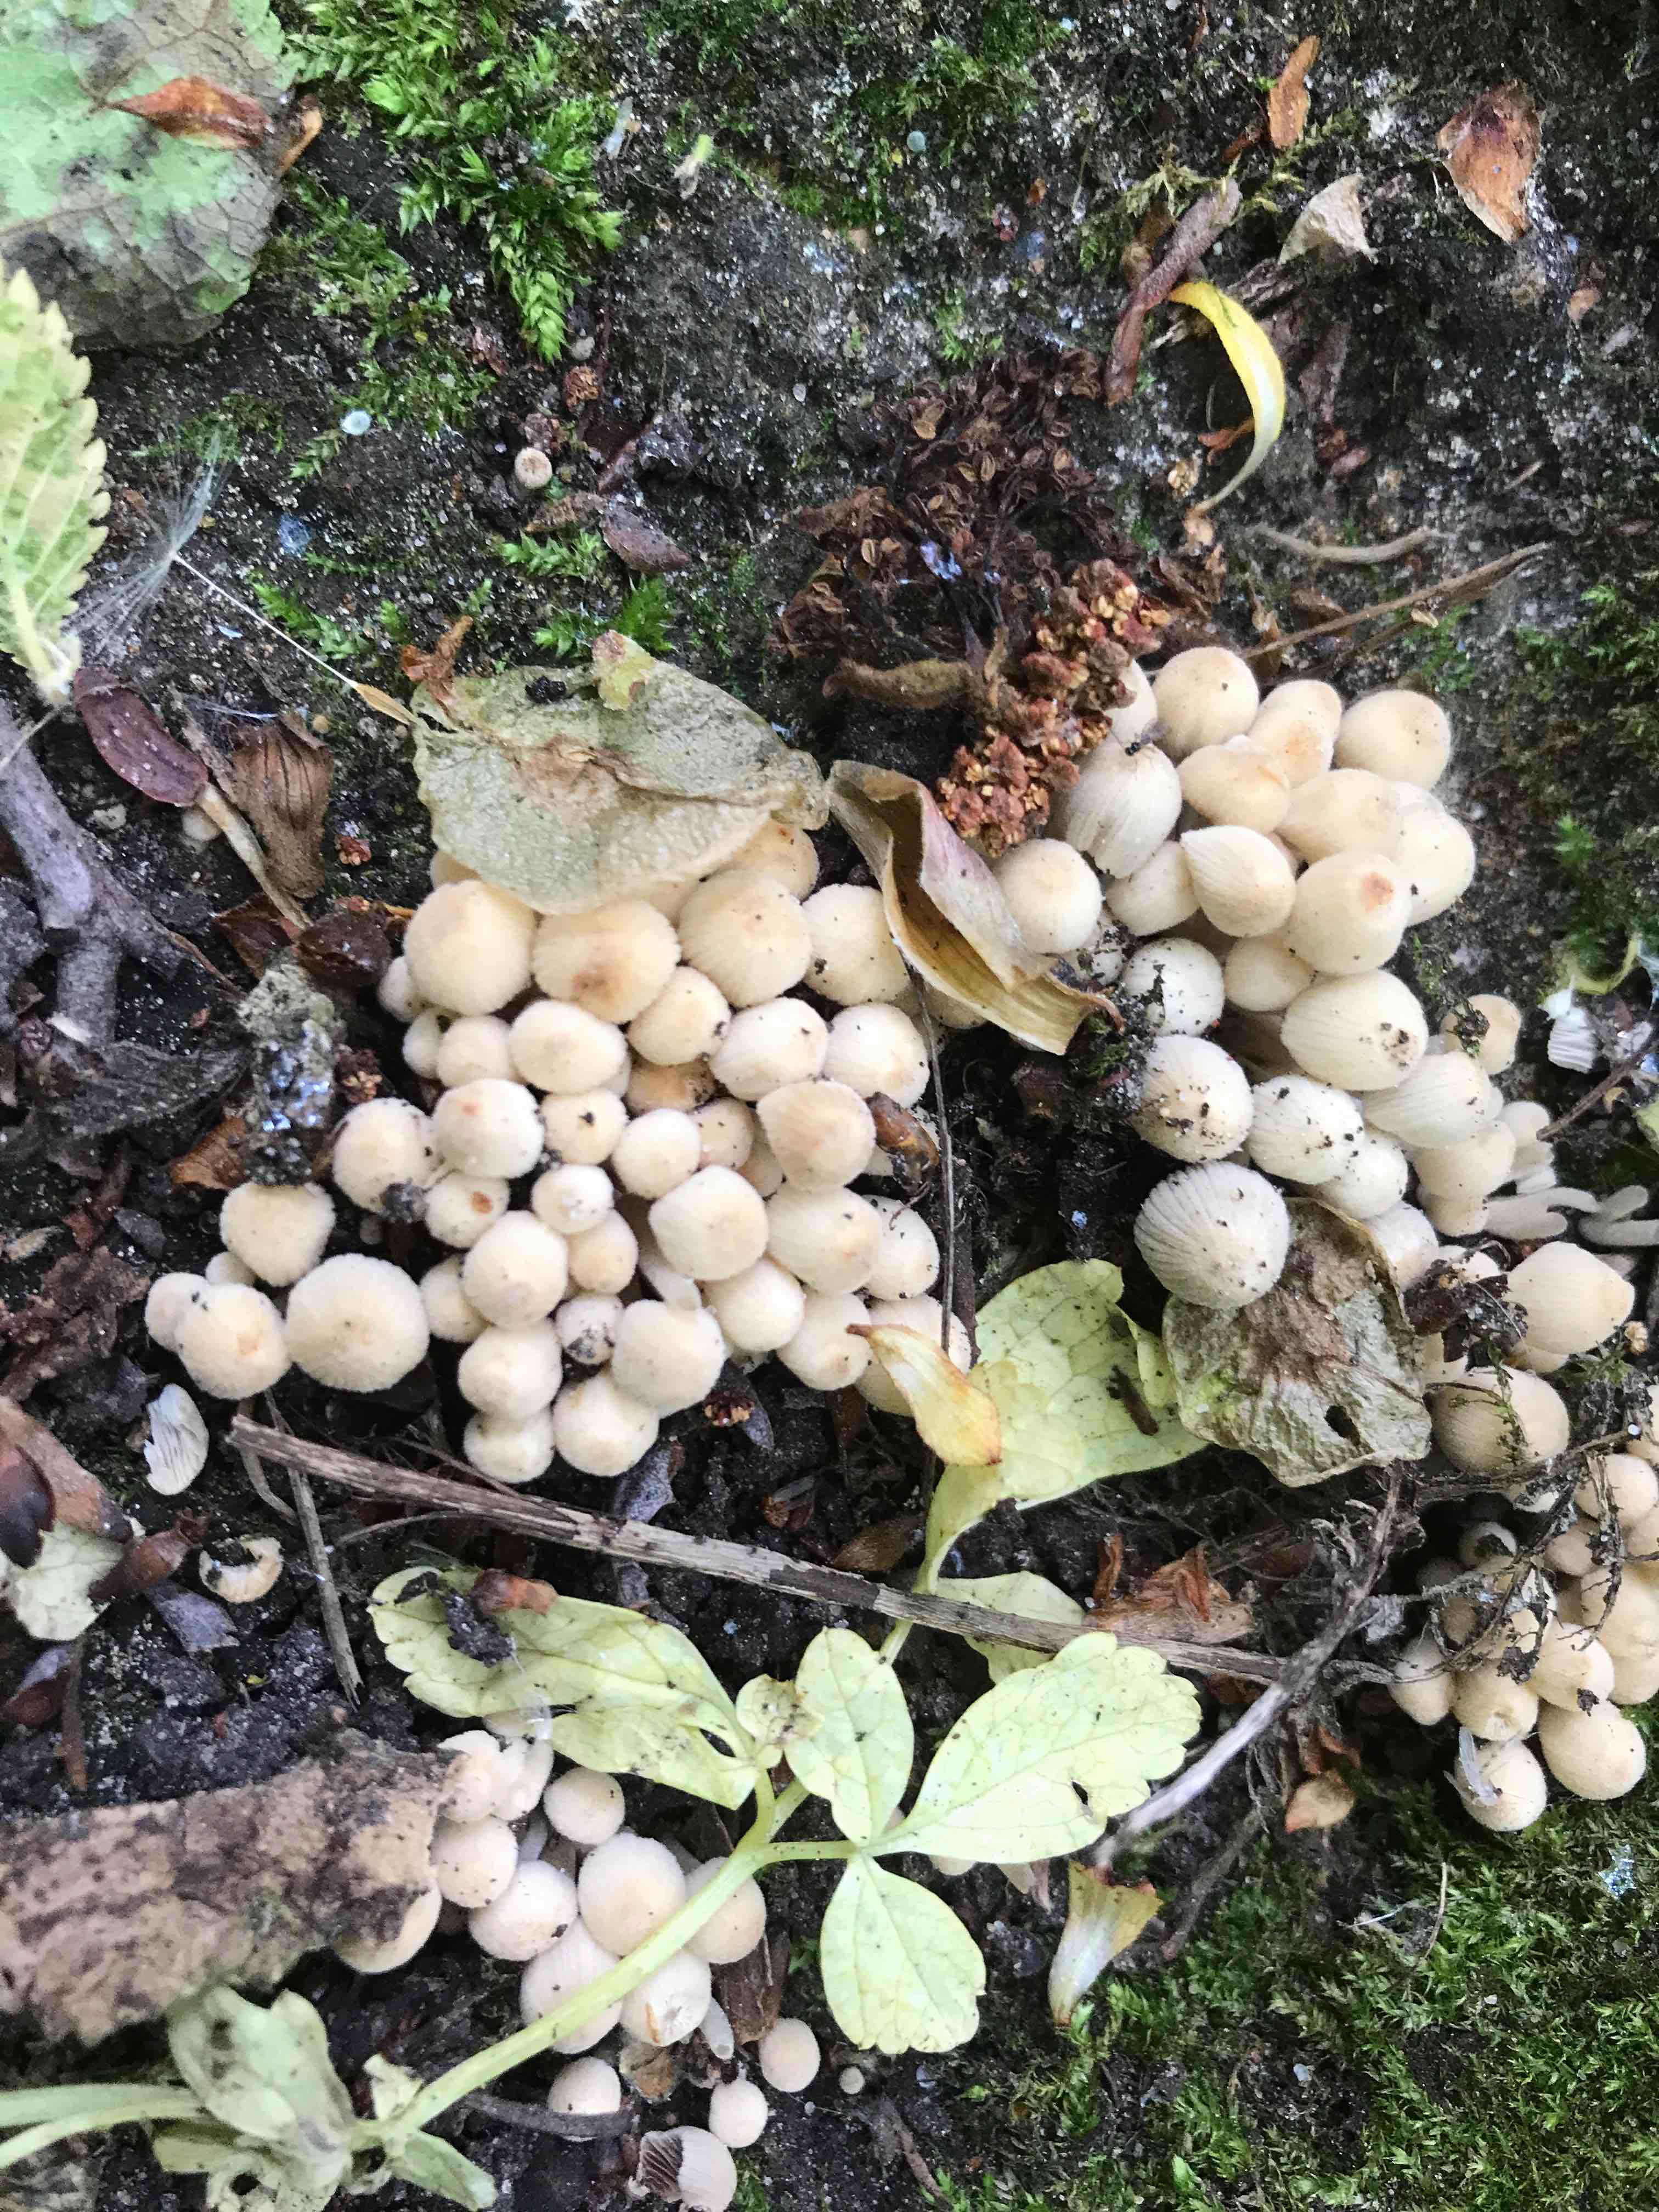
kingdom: Fungi
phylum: Basidiomycota
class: Agaricomycetes
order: Agaricales
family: Psathyrellaceae
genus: Coprinellus
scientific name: Coprinellus disseminatus
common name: bredsået blækhat
